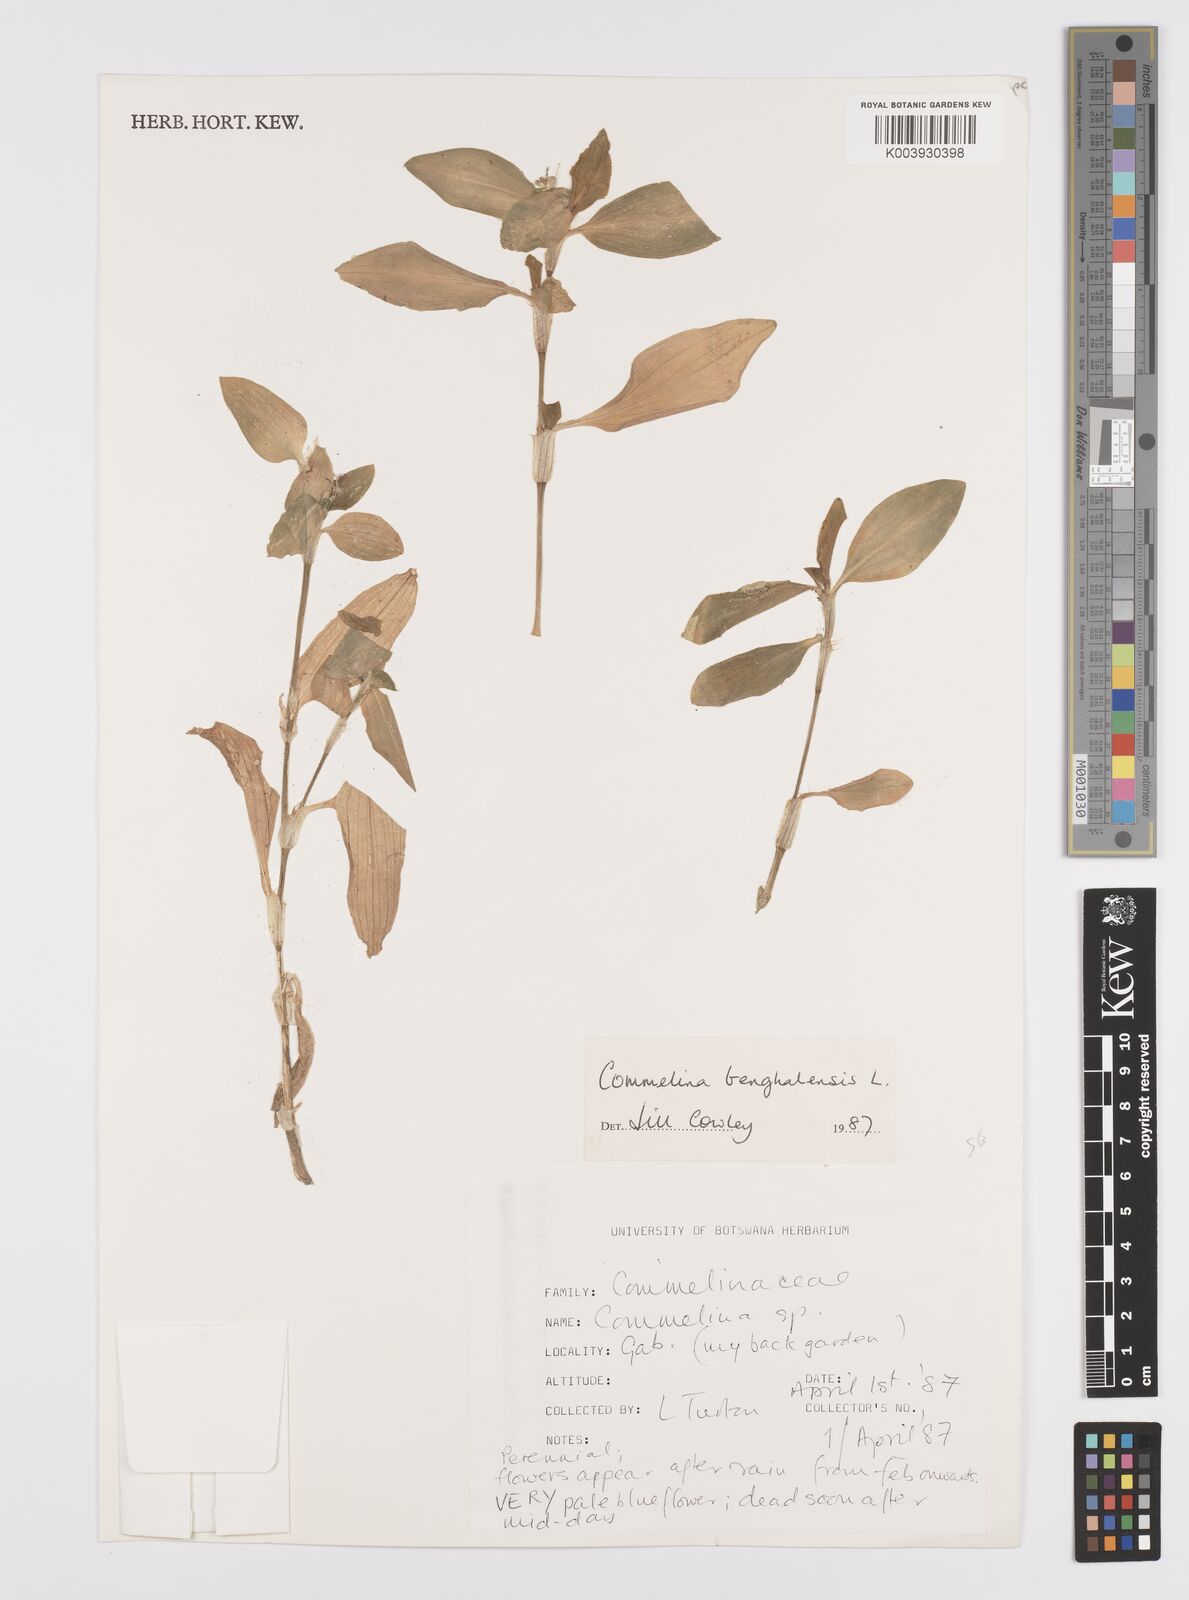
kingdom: Plantae
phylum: Tracheophyta
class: Liliopsida
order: Commelinales
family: Commelinaceae
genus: Commelina
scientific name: Commelina benghalensis
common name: Jio
